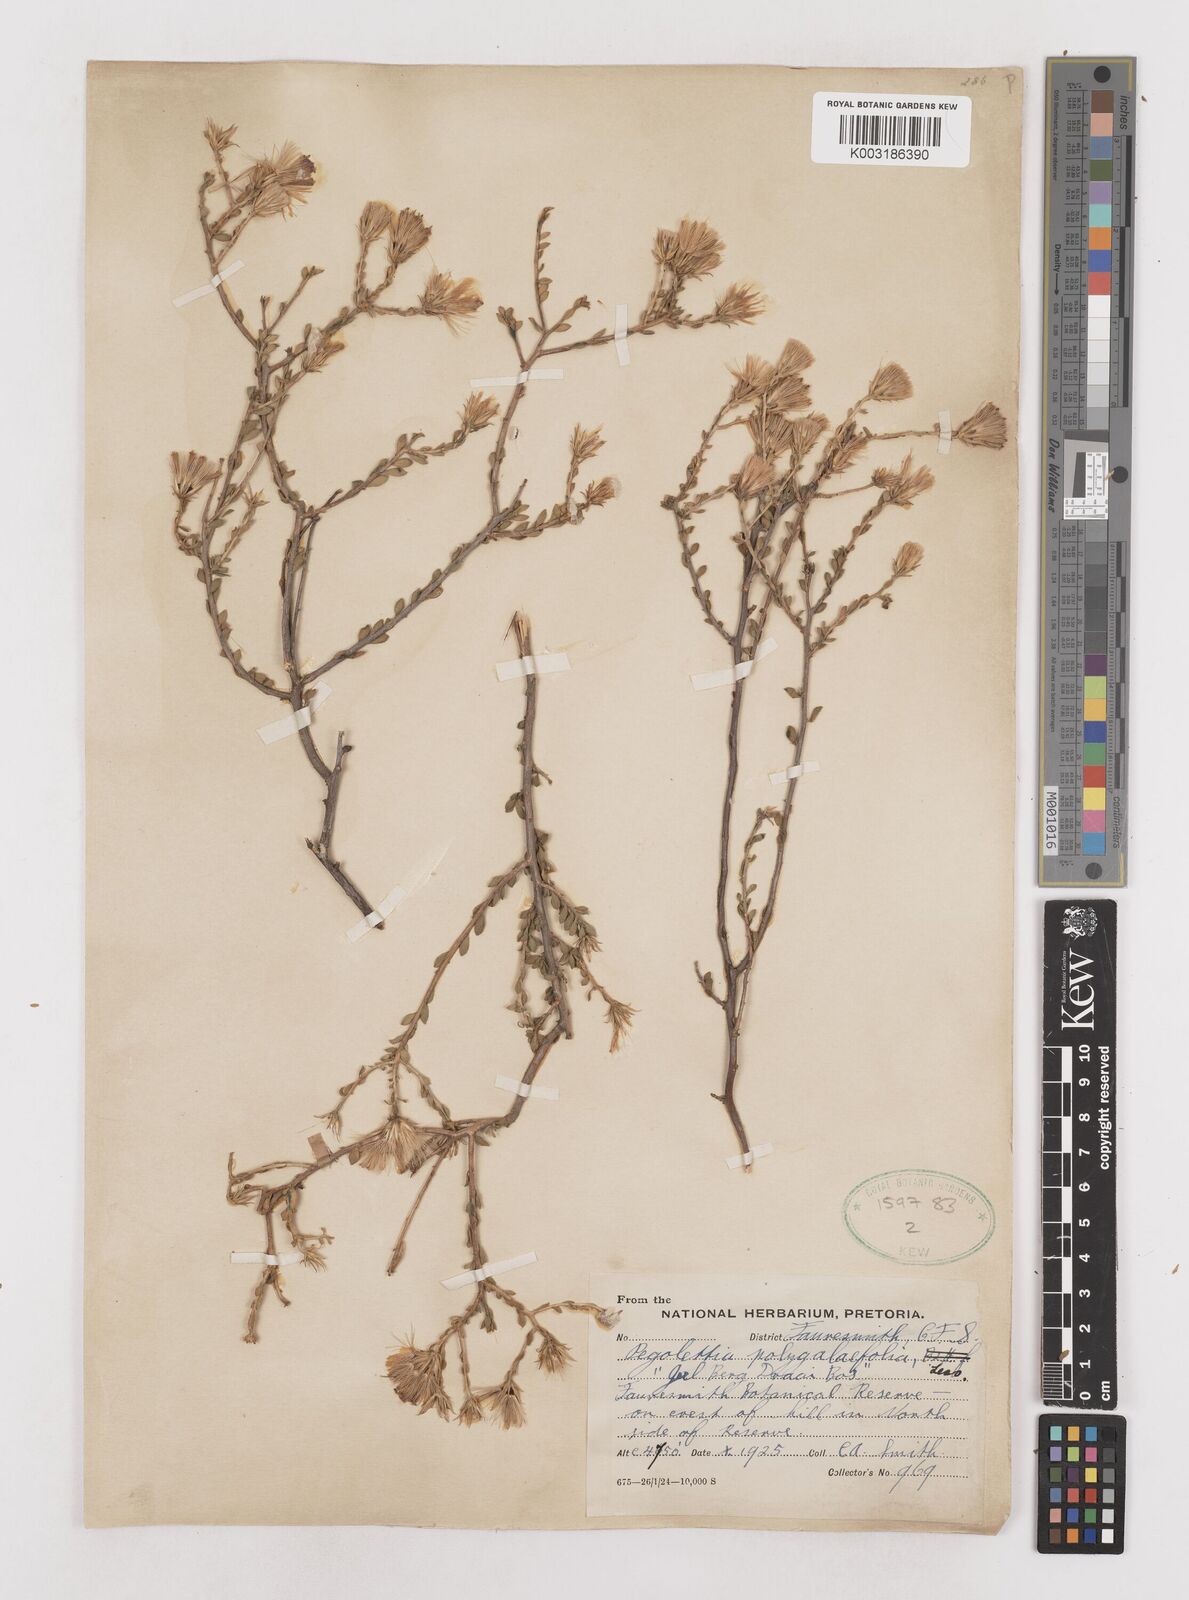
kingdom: Plantae
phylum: Tracheophyta
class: Magnoliopsida
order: Asterales
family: Asteraceae
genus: Pegolettia
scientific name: Pegolettia retrofracta
